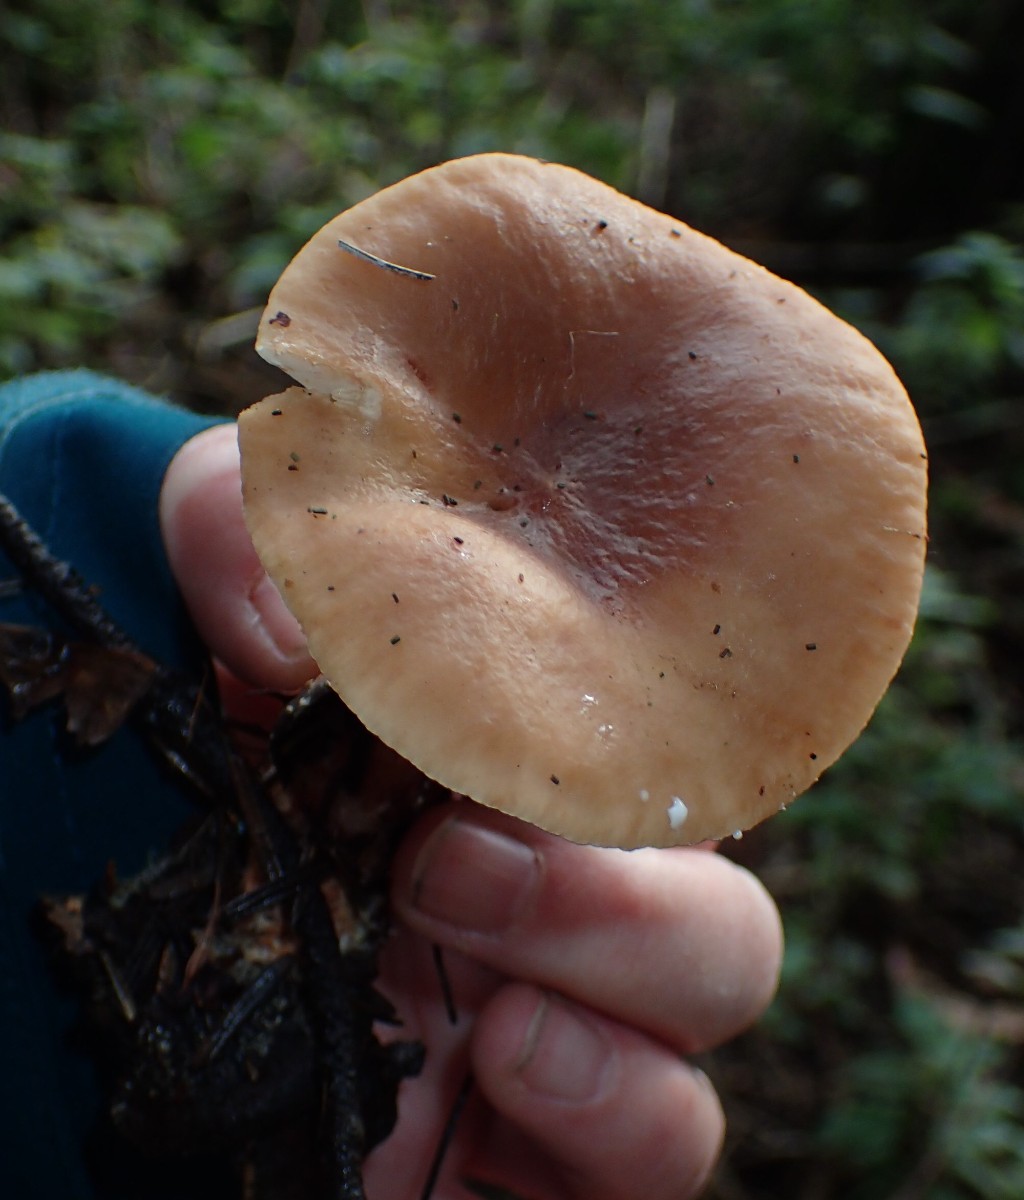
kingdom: Fungi
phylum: Basidiomycota
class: Agaricomycetes
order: Russulales
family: Russulaceae
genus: Lactarius
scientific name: Lactarius tabidus
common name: rynket mælkehat
